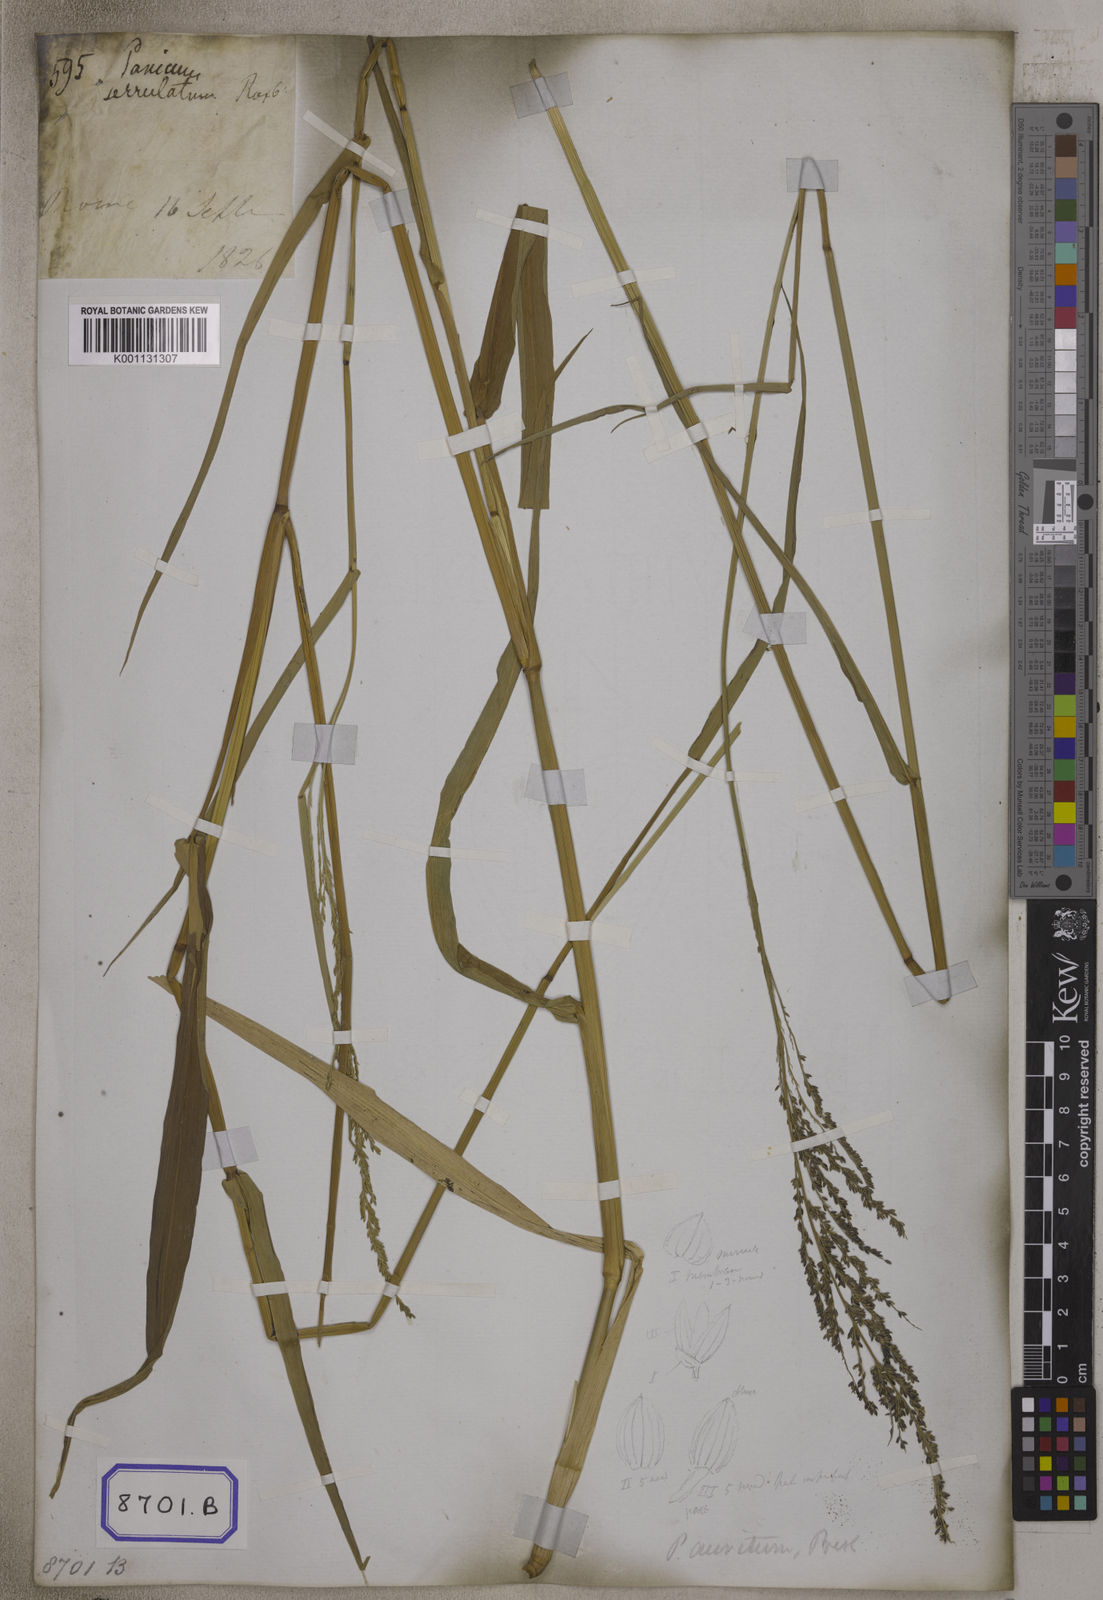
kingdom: Plantae
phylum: Tracheophyta
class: Liliopsida
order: Poales
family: Poaceae
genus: Panicum
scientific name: Panicum
